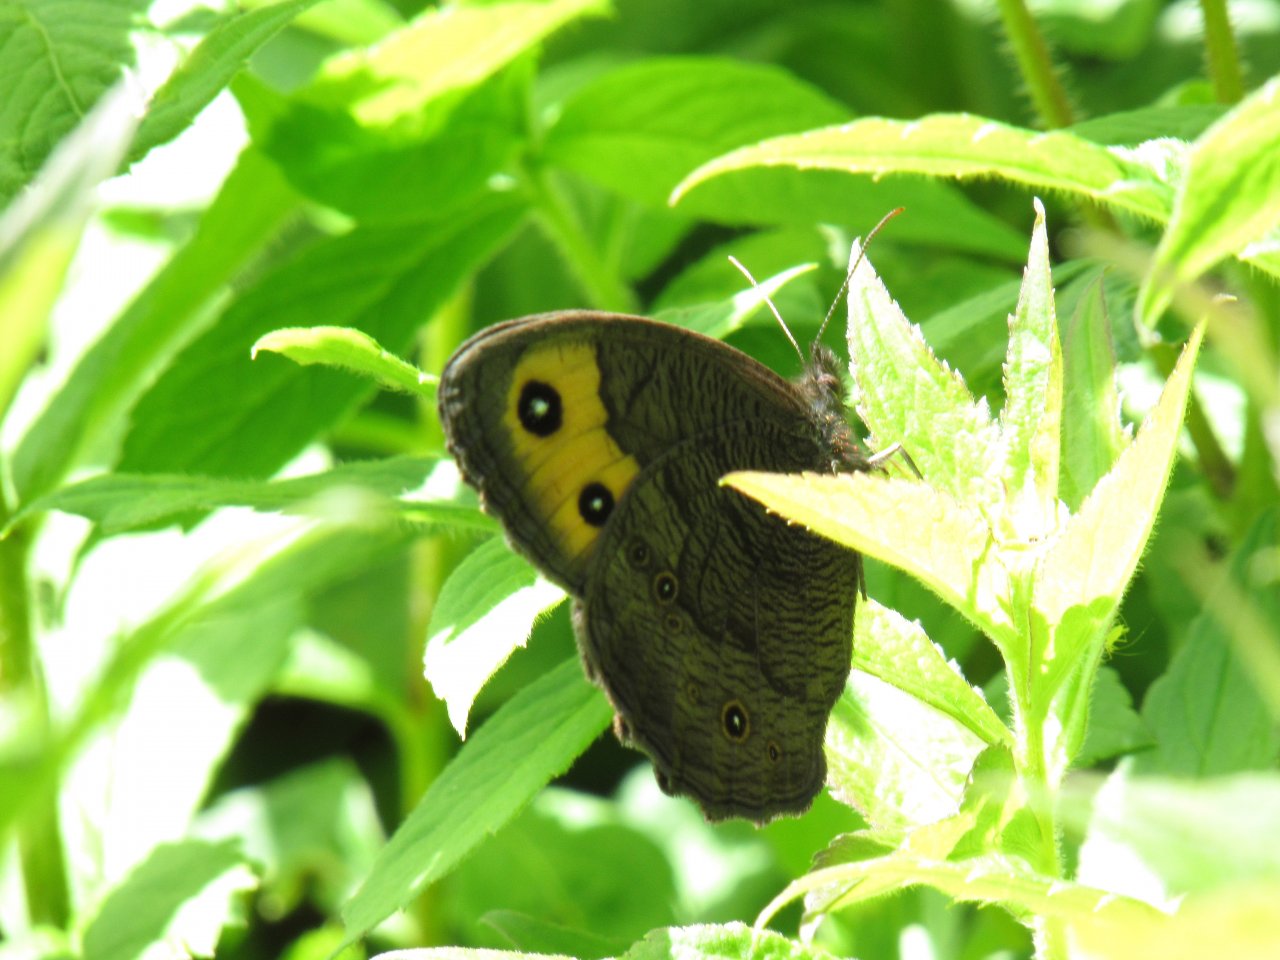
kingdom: Animalia
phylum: Arthropoda
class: Insecta
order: Lepidoptera
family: Nymphalidae
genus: Cercyonis
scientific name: Cercyonis pegala
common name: Common Wood-Nymph
